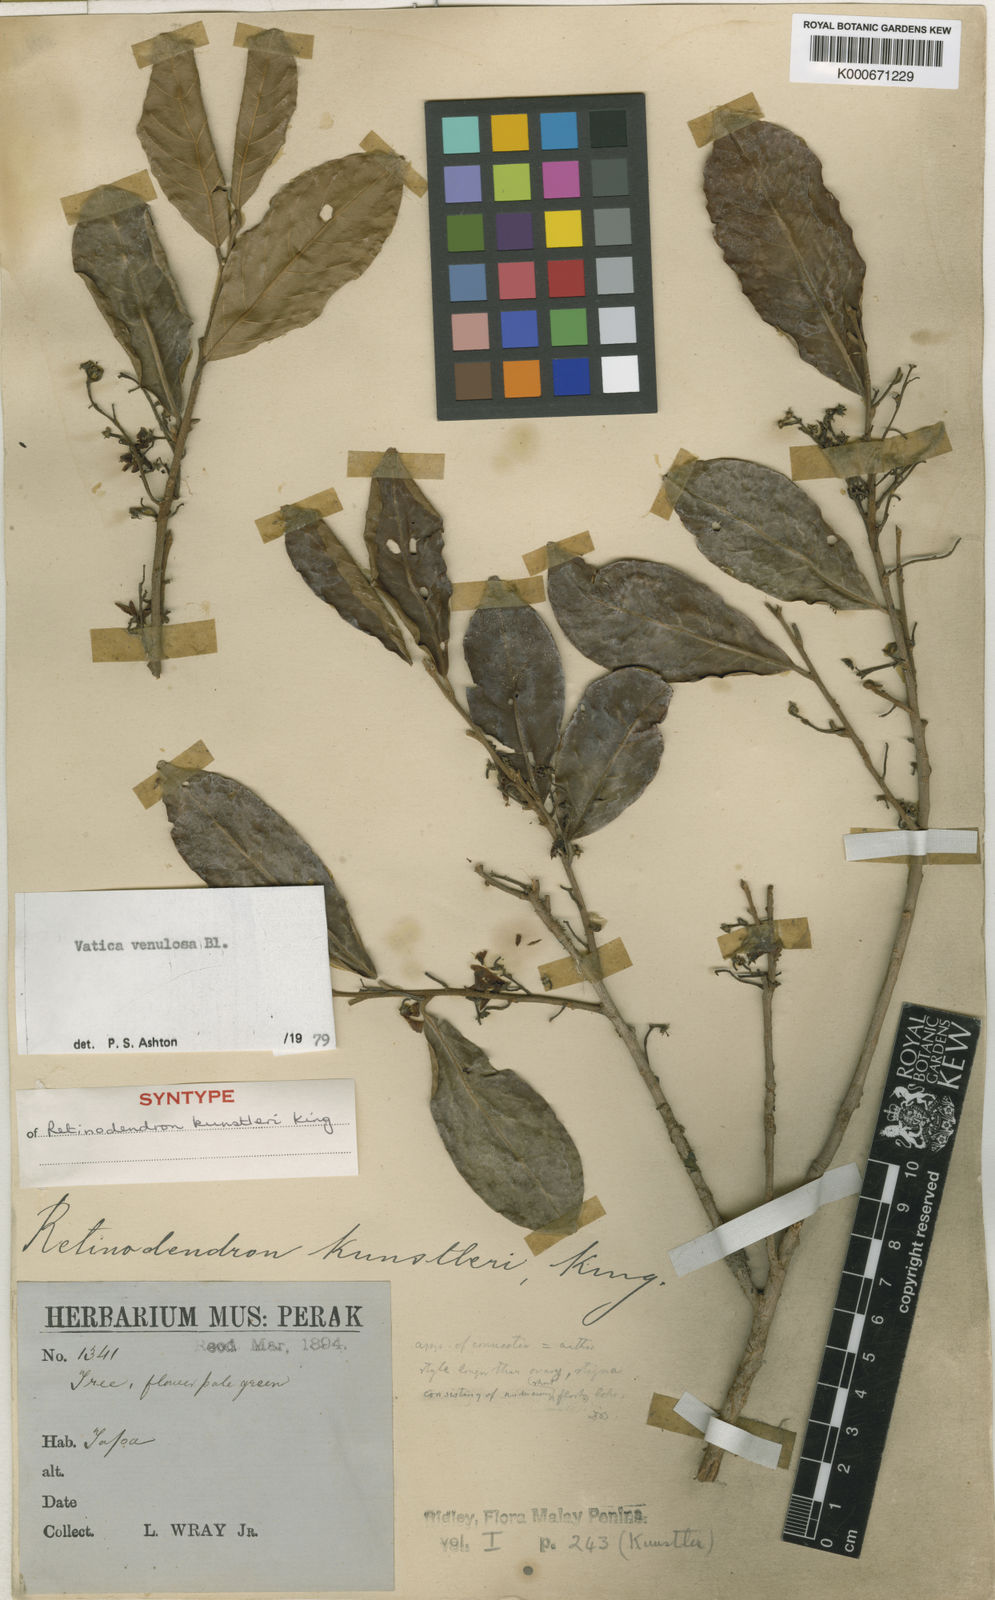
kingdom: Plantae
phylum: Tracheophyta
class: Magnoliopsida
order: Malvales
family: Dipterocarpaceae
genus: Vatica
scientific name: Vatica venulosa
